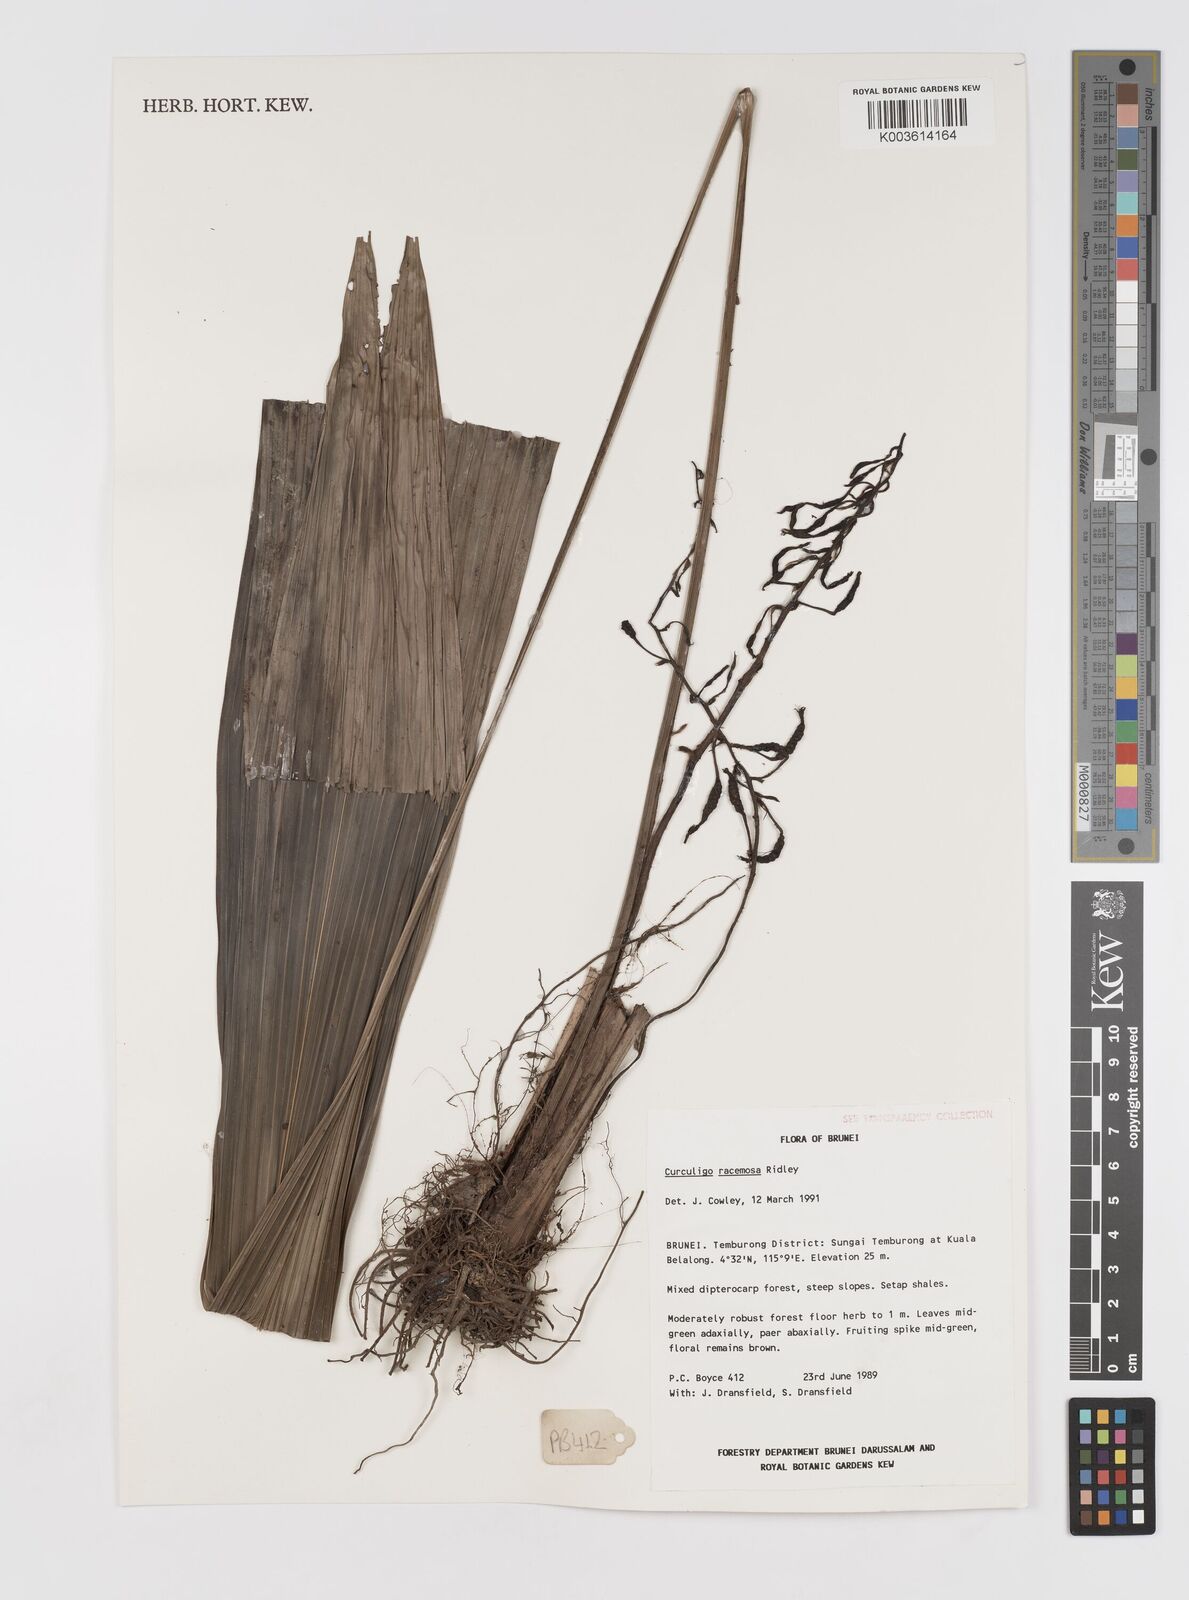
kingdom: Plantae
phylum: Tracheophyta
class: Liliopsida
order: Asparagales
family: Hypoxidaceae
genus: Curculigo
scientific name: Curculigo racemosa
